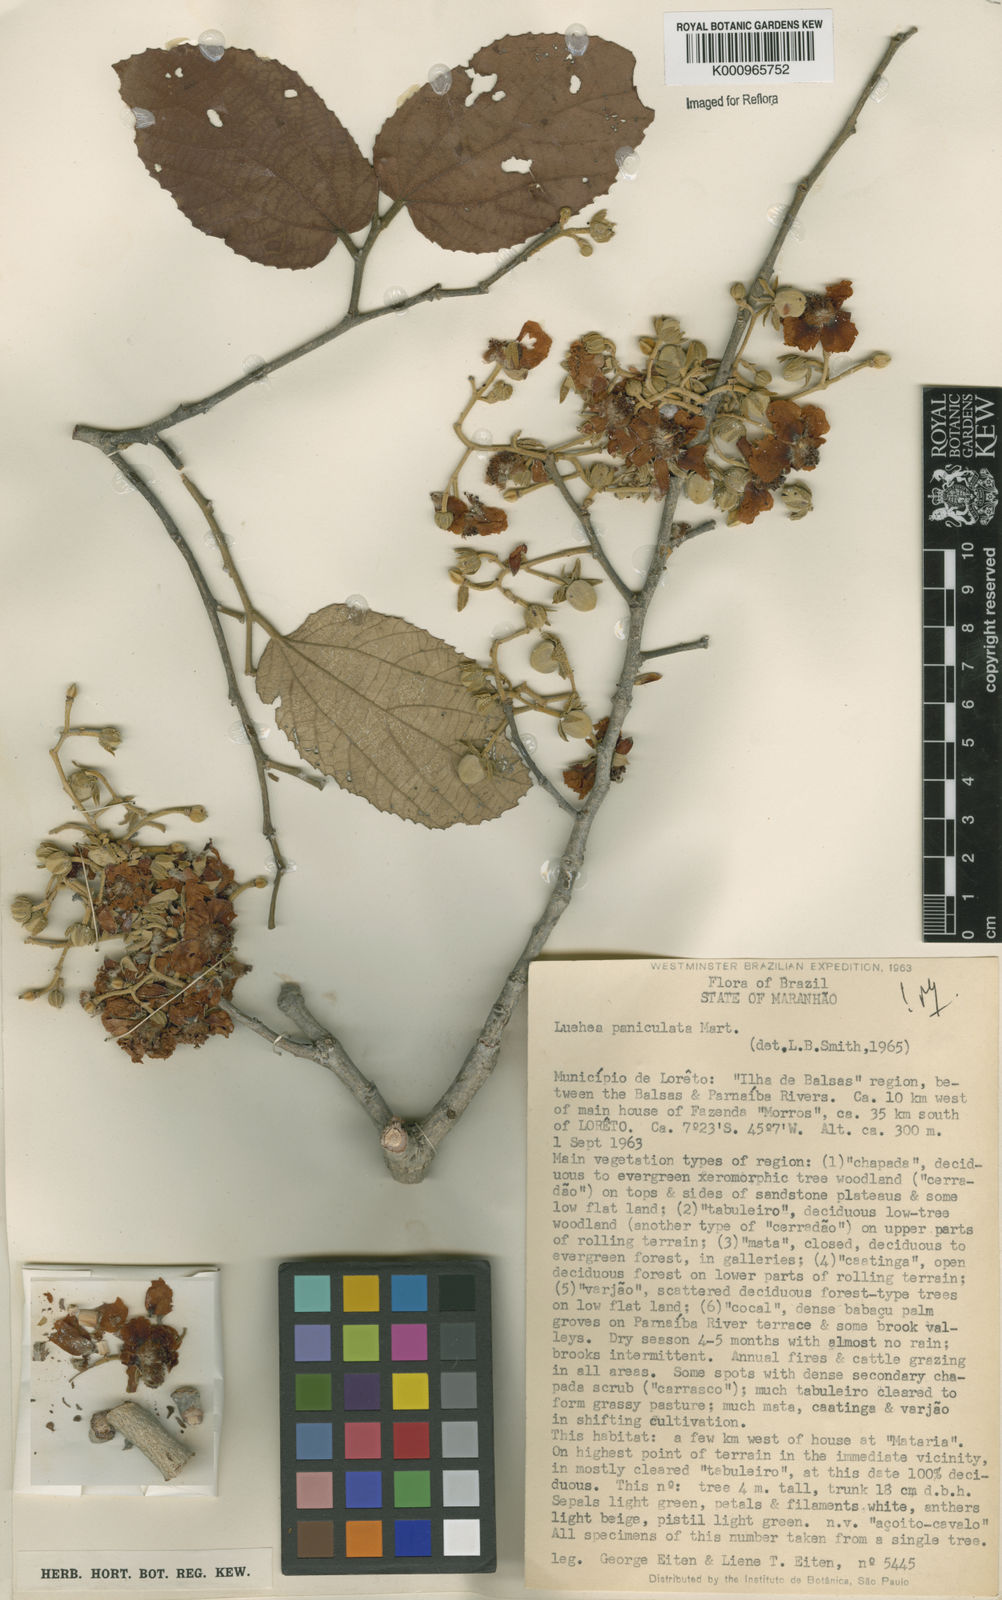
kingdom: Plantae
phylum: Tracheophyta
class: Magnoliopsida
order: Malvales
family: Malvaceae
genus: Luehea
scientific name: Luehea paniculata
